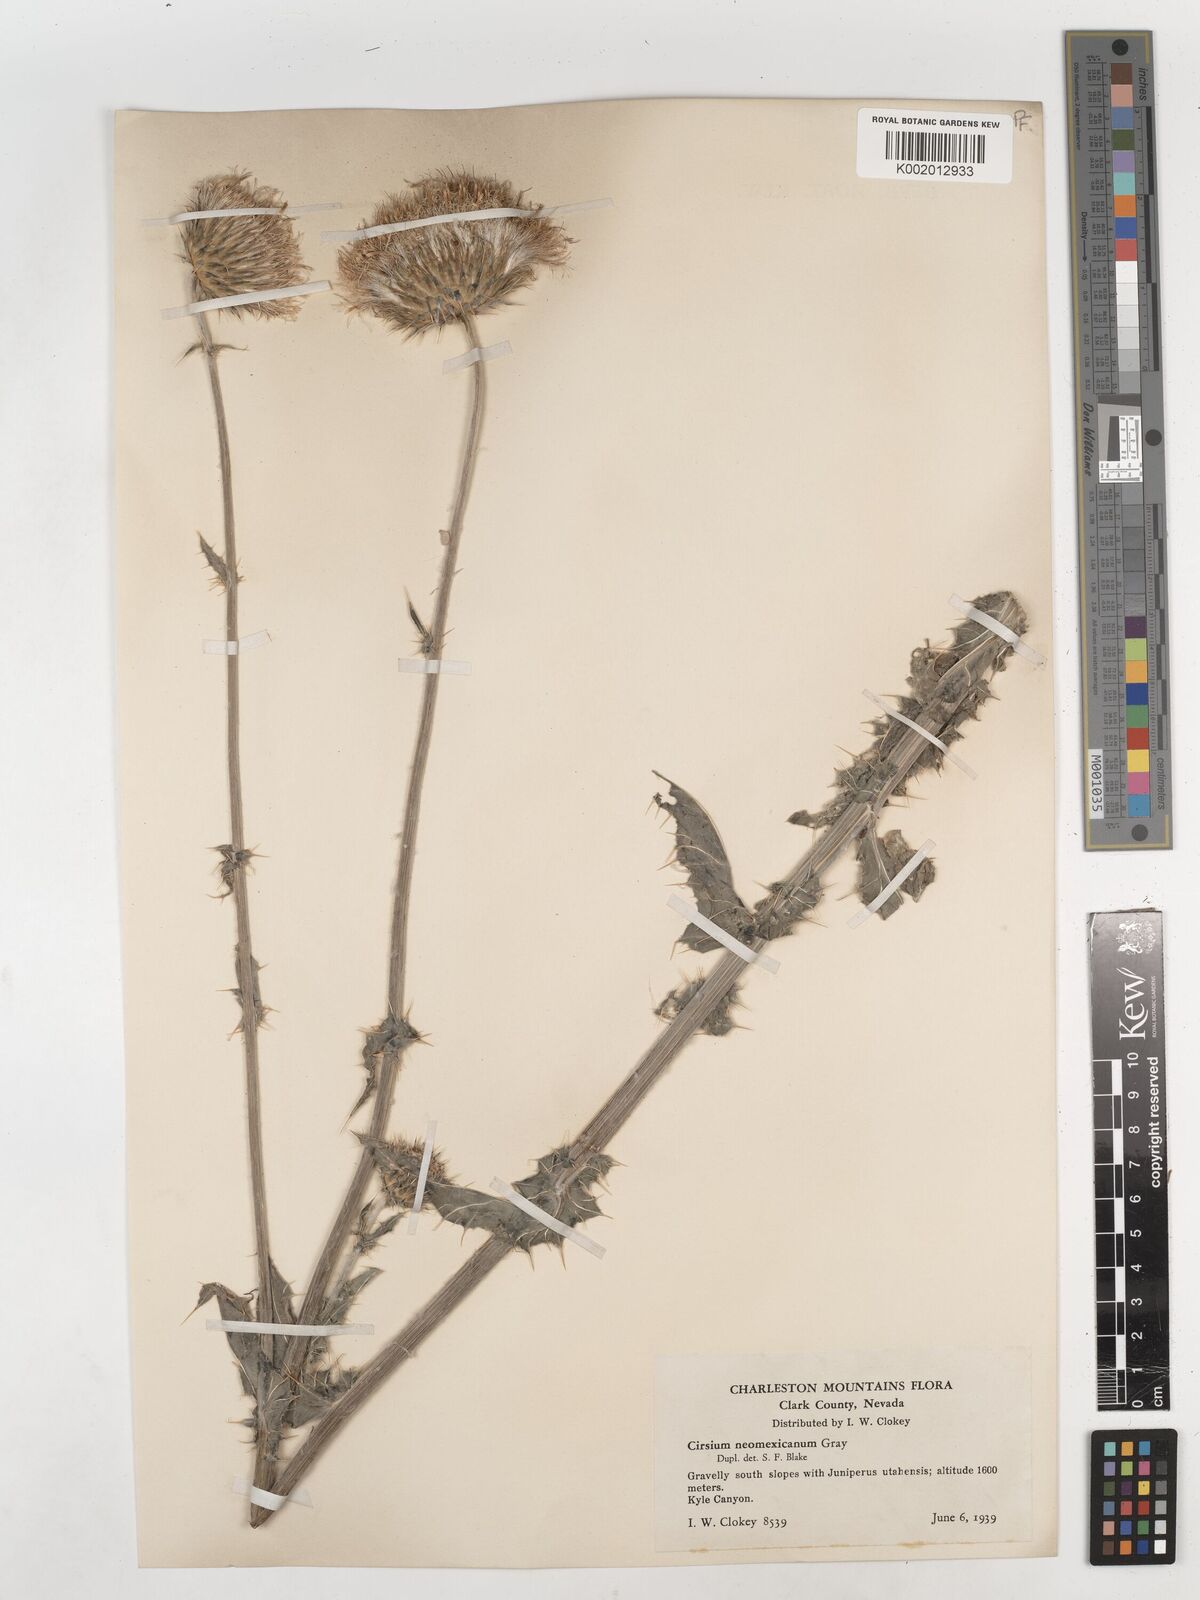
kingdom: Plantae
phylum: Tracheophyta
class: Magnoliopsida
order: Asterales
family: Asteraceae
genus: Cirsium
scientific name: Cirsium neomexicanum
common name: New mexico thistle
